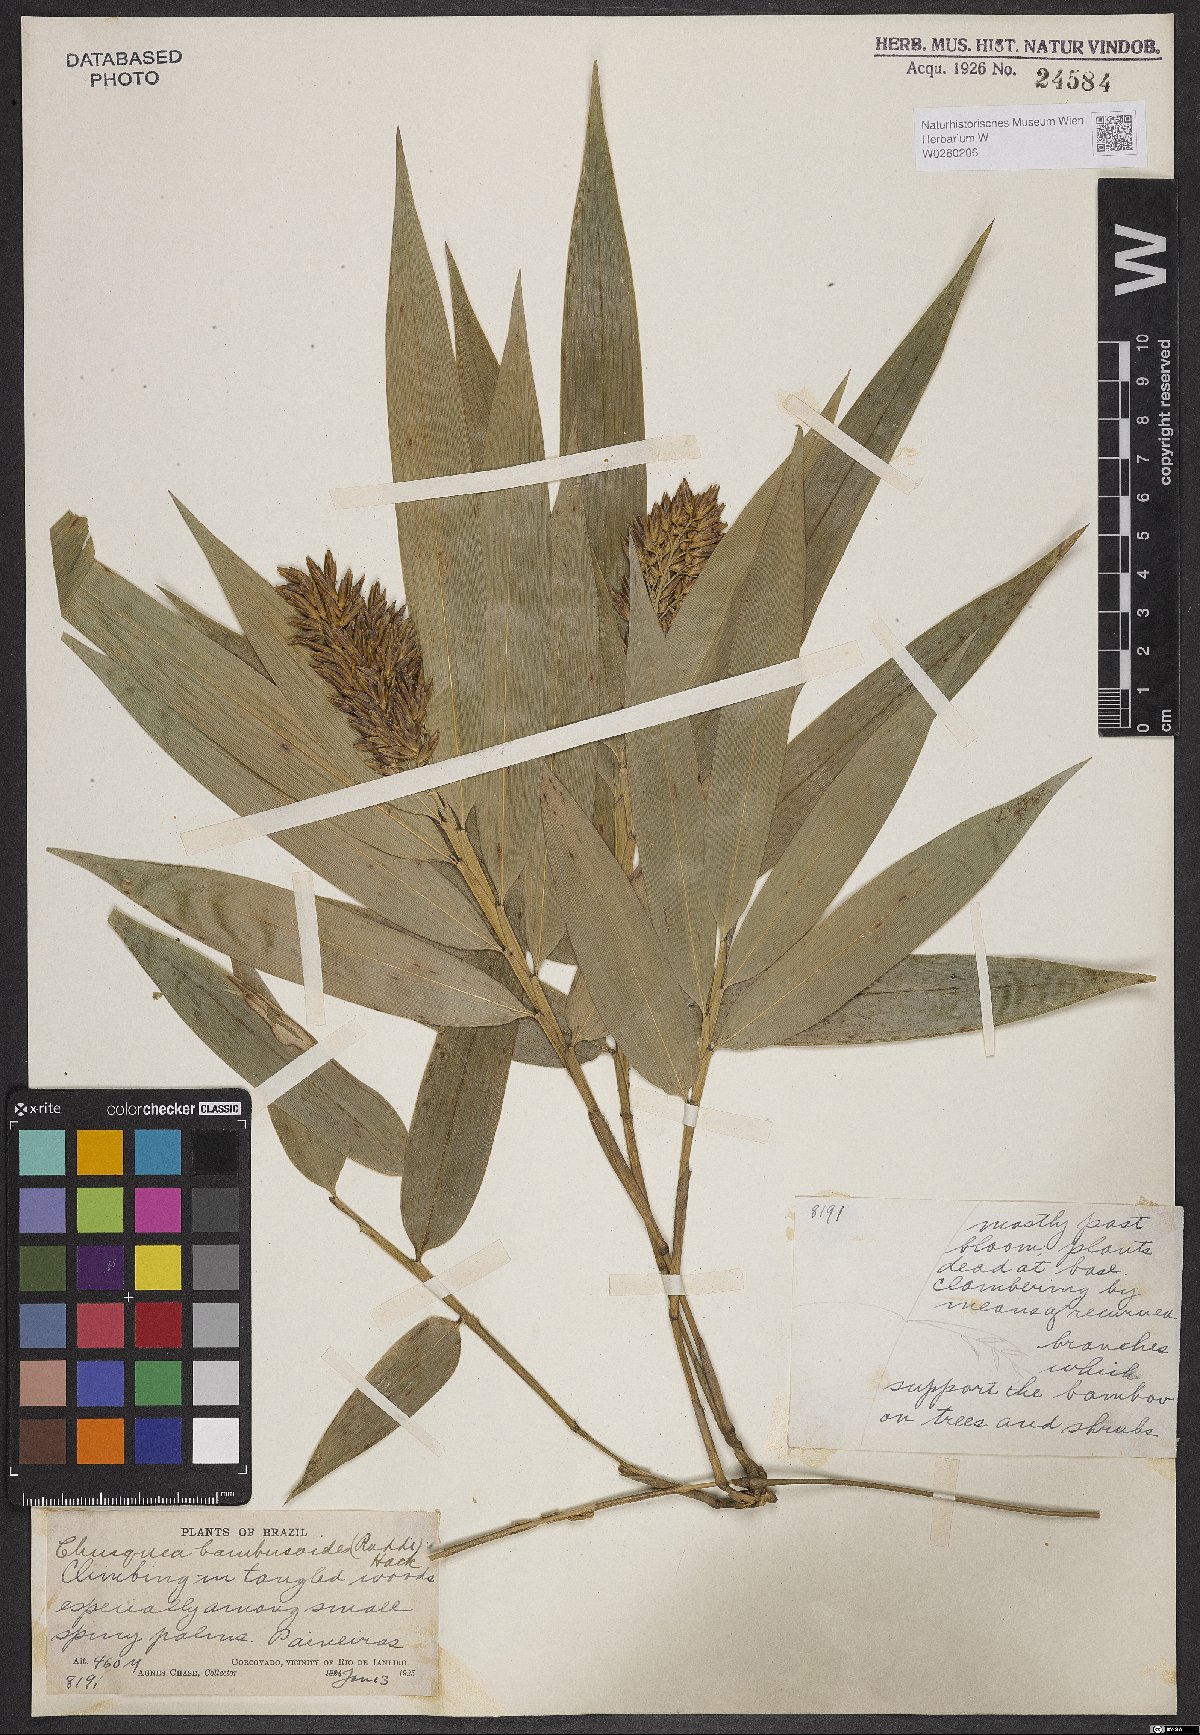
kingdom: Plantae
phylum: Tracheophyta
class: Liliopsida
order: Poales
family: Poaceae
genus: Chusquea
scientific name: Chusquea bambusoides
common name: Brazil scrambling bamboo
